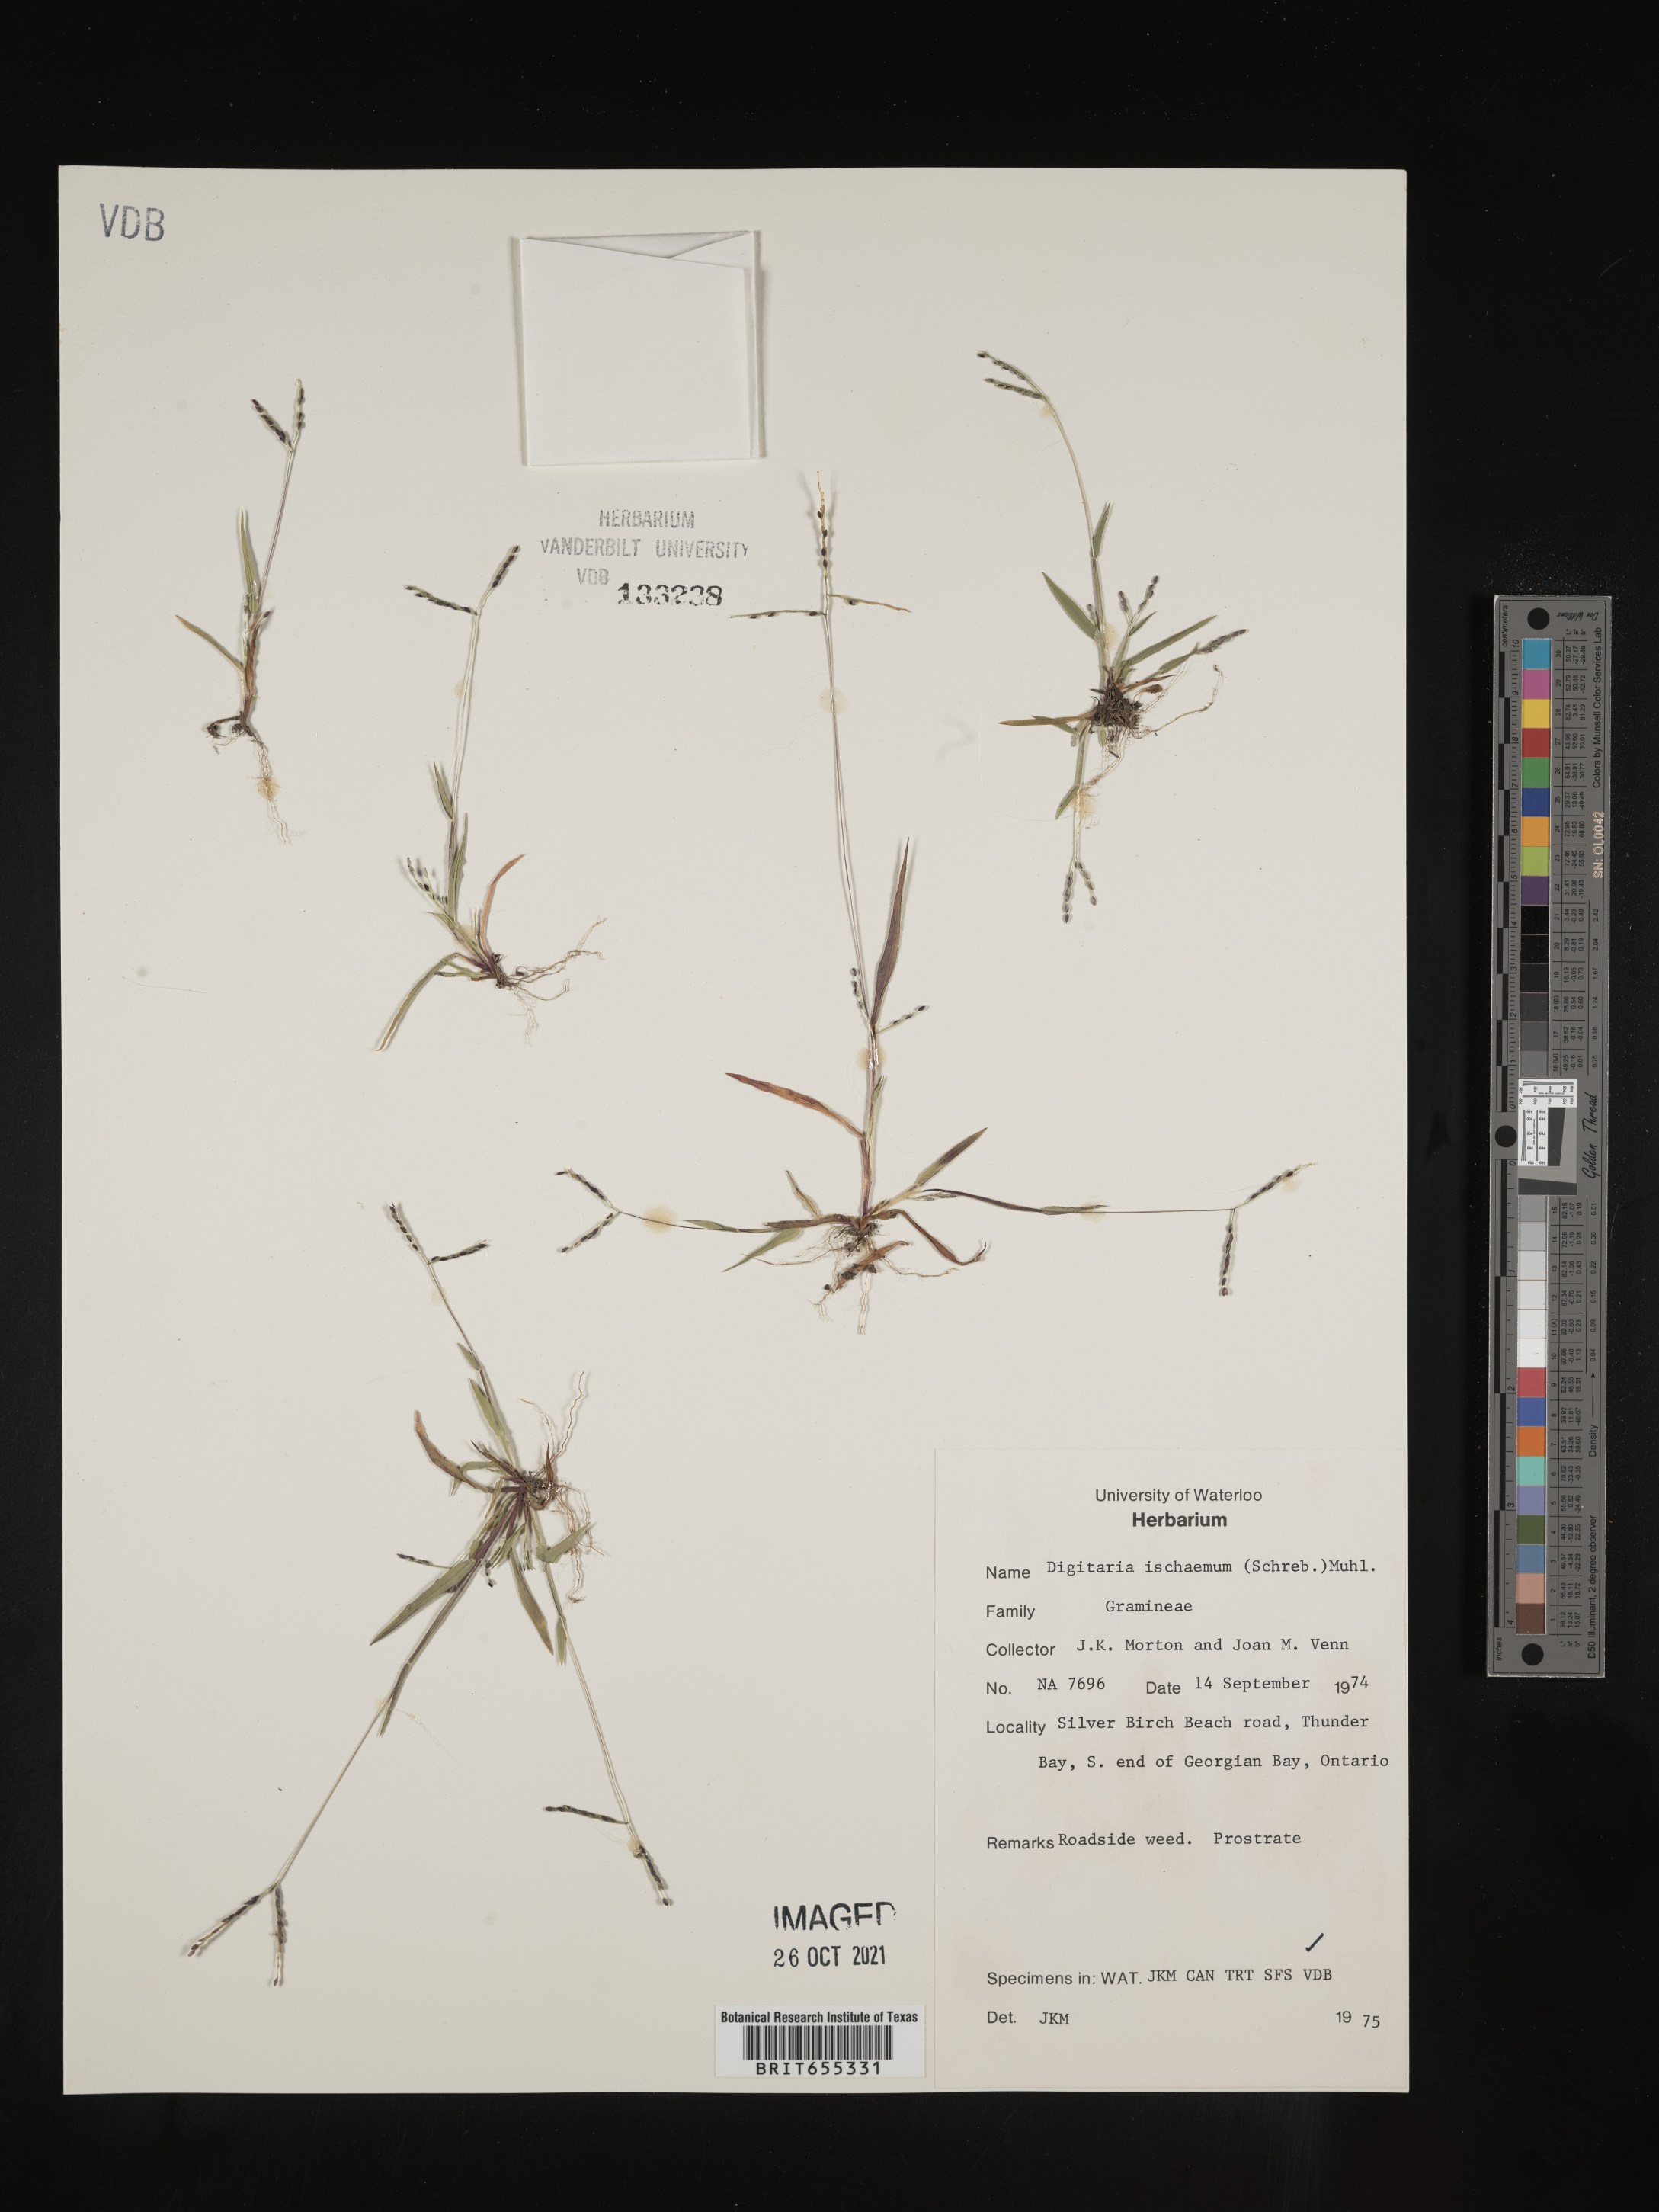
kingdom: Plantae
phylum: Tracheophyta
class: Liliopsida
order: Poales
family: Poaceae
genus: Digitaria
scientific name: Digitaria
